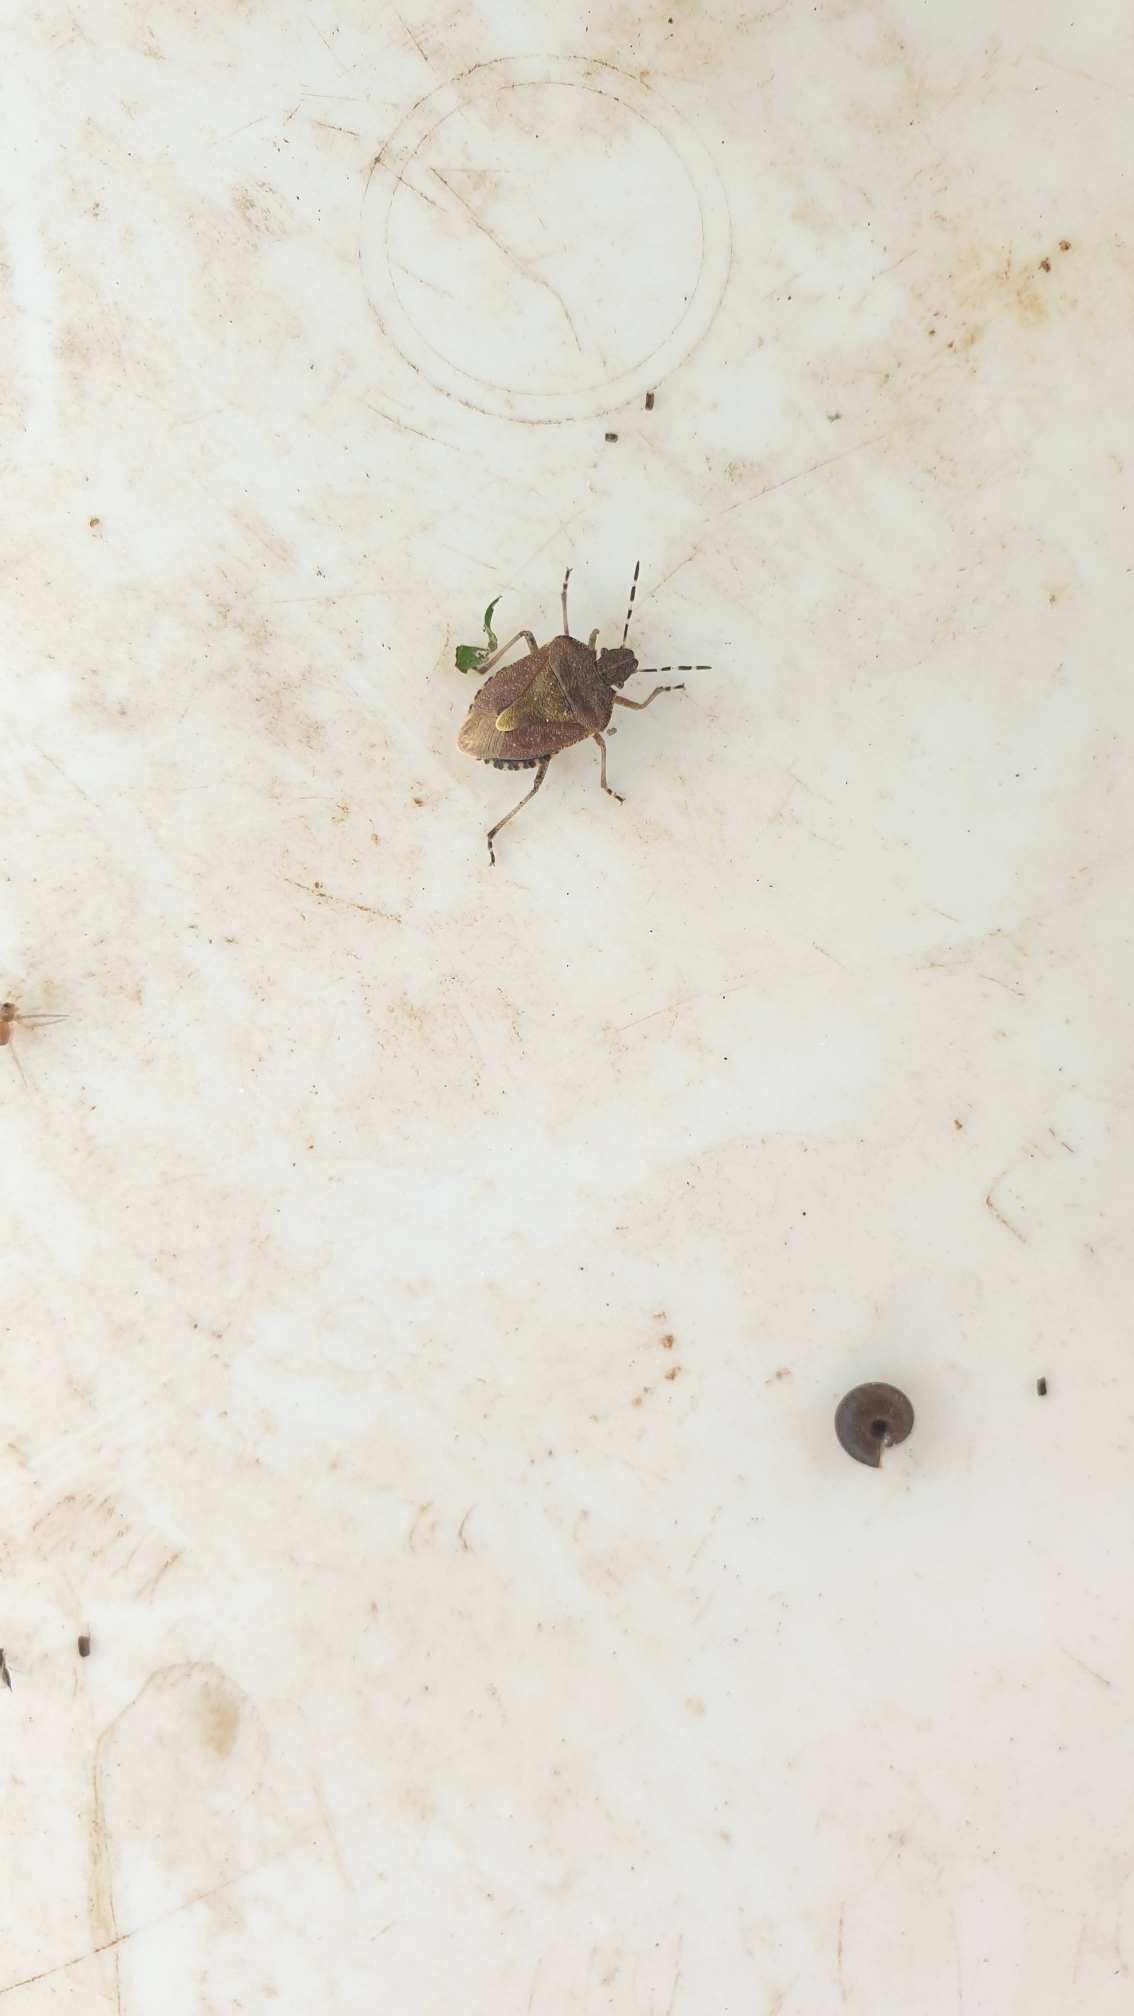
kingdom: Animalia
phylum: Arthropoda
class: Insecta
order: Hemiptera
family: Pentatomidae
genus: Dolycoris
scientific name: Dolycoris baccarum
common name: Almindelig bærtæge
